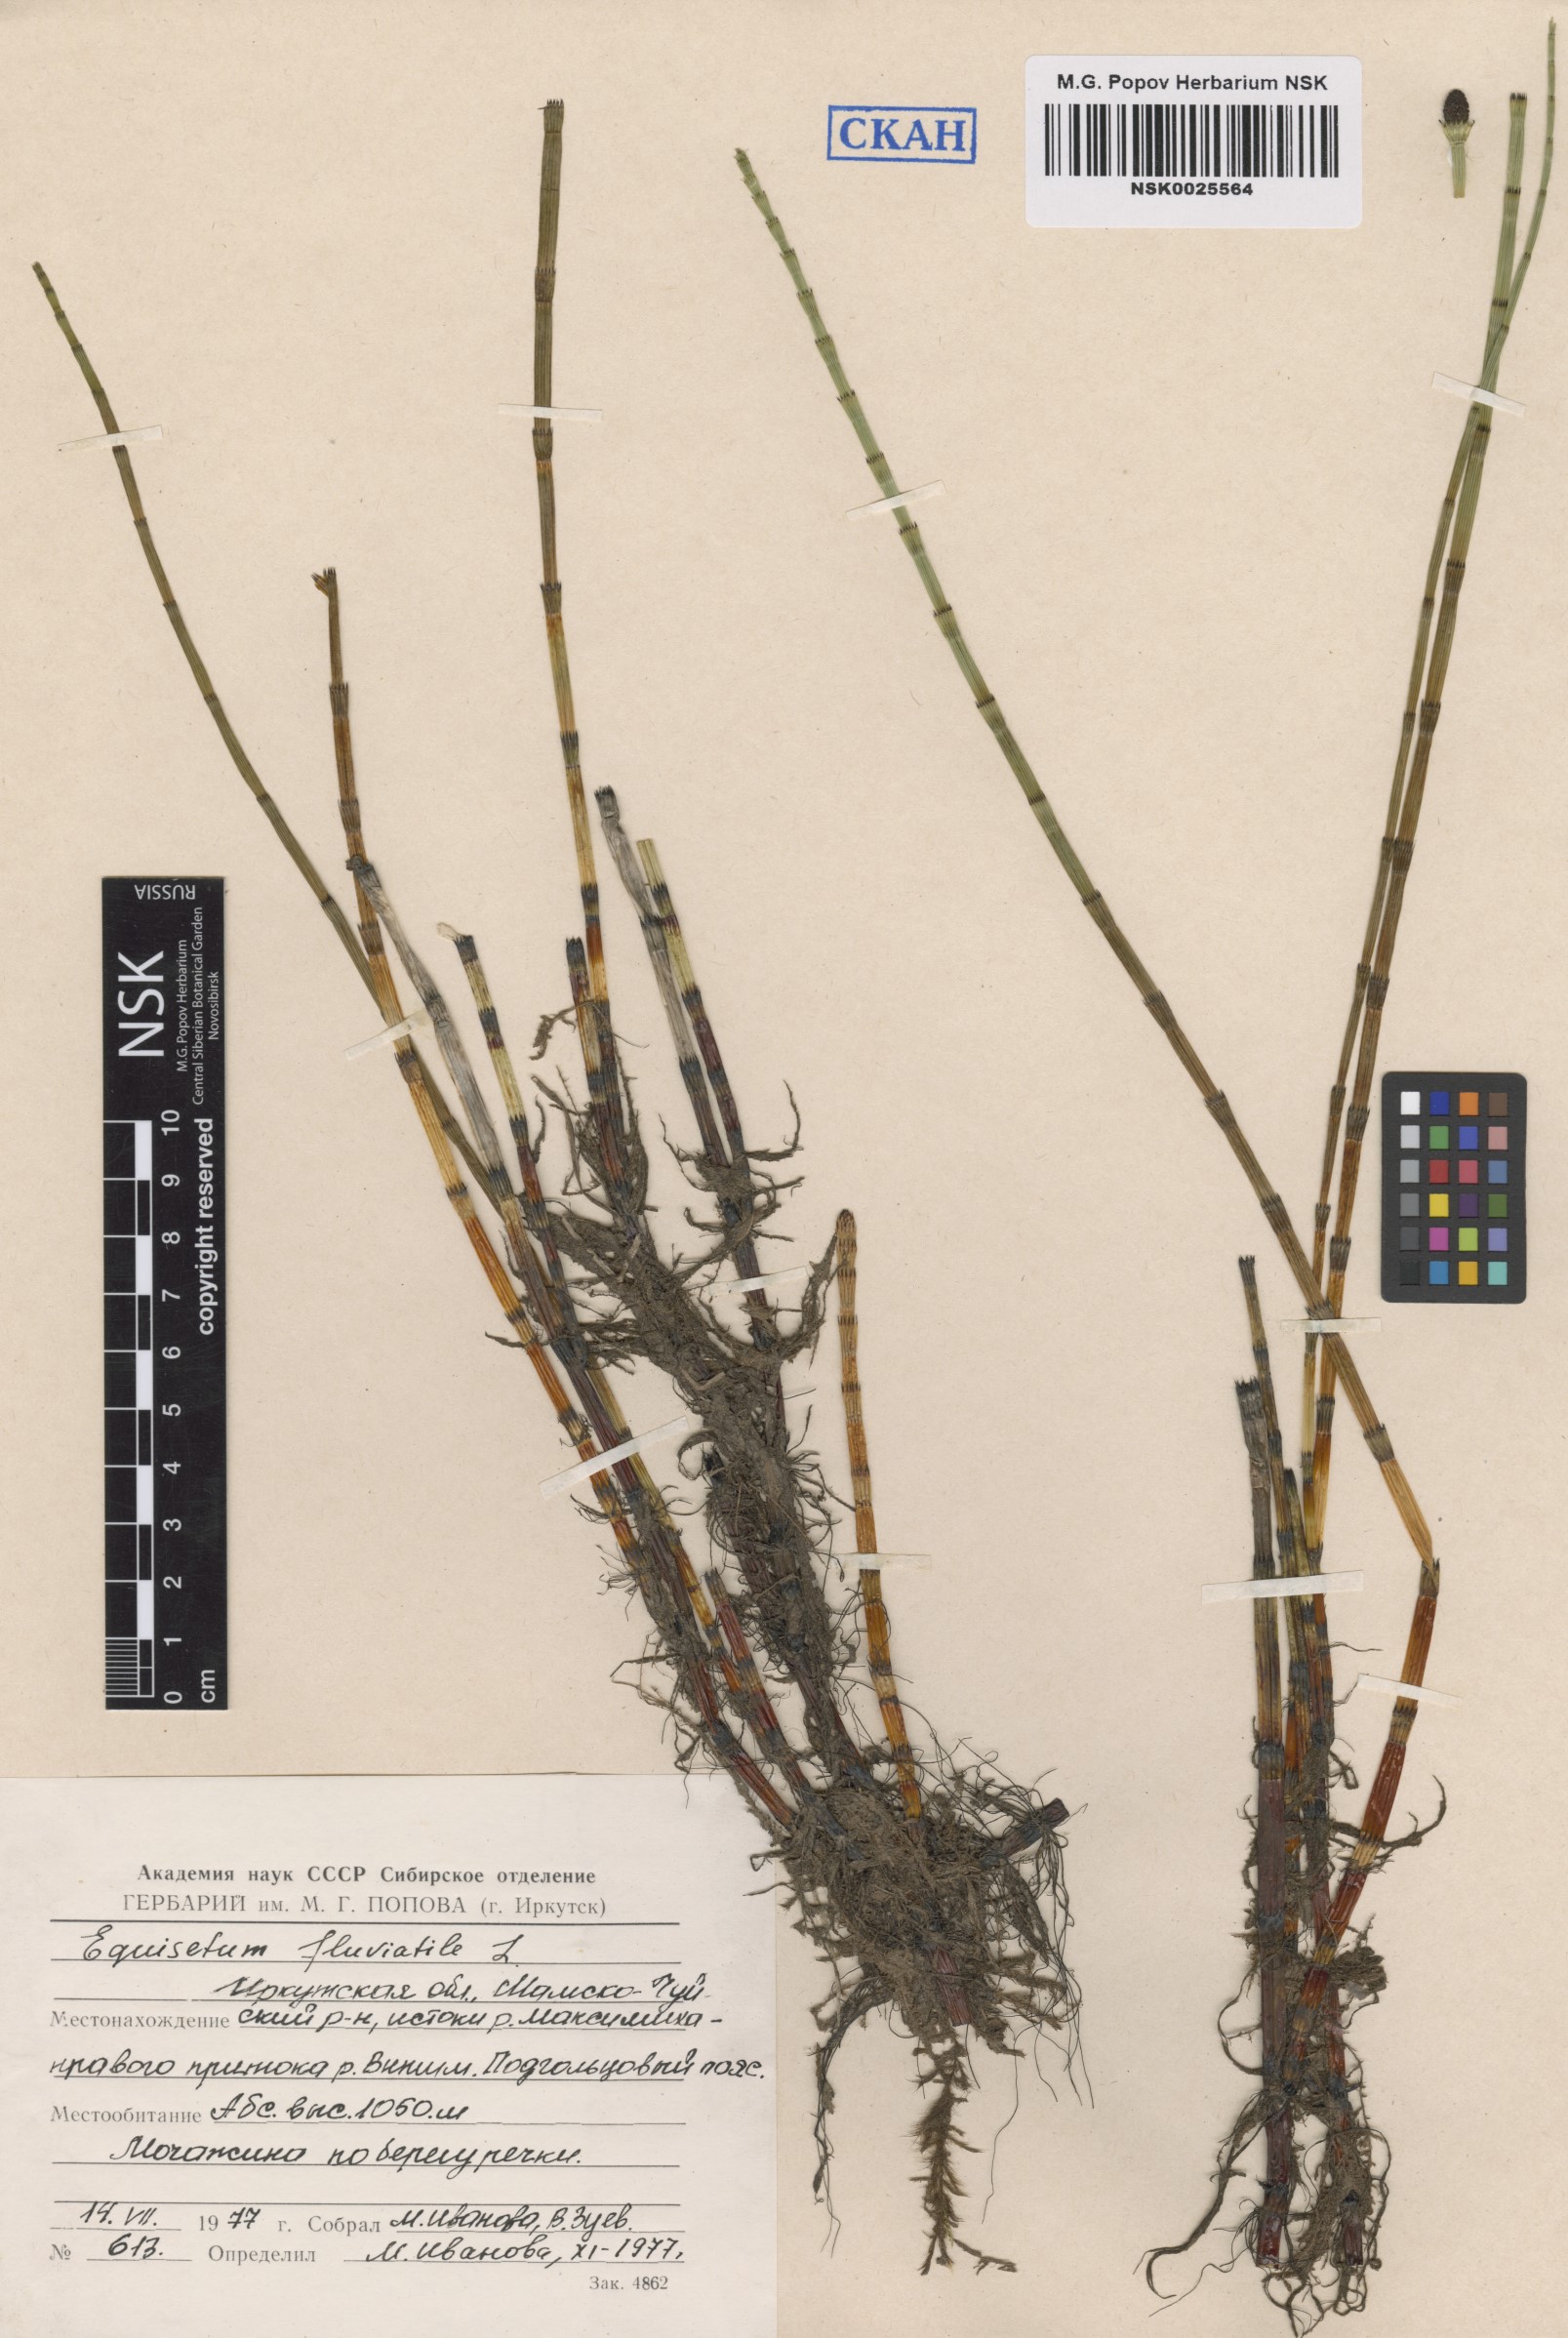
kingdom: Plantae
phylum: Tracheophyta
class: Polypodiopsida
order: Equisetales
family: Equisetaceae
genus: Equisetum
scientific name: Equisetum fluviatile
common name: Water horsetail
